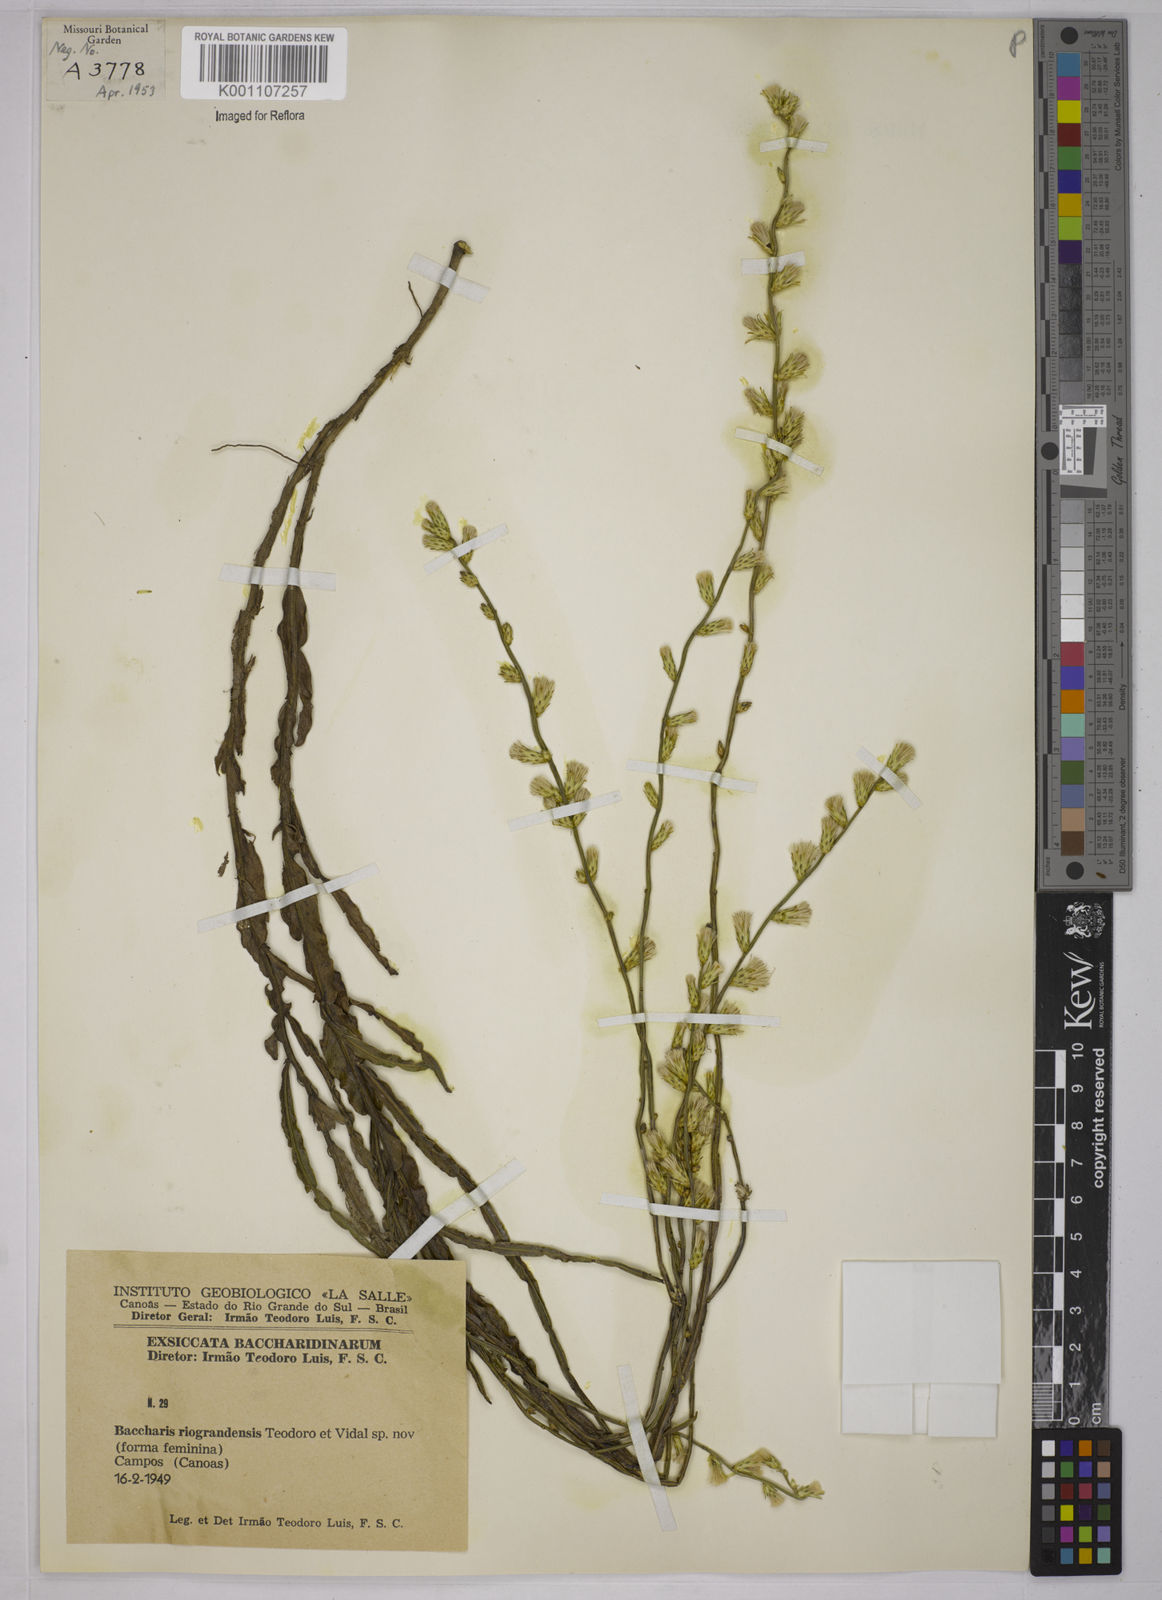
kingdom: Plantae
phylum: Tracheophyta
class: Magnoliopsida
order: Asterales
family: Asteraceae
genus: Baccharis
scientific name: Baccharis riograndensis
